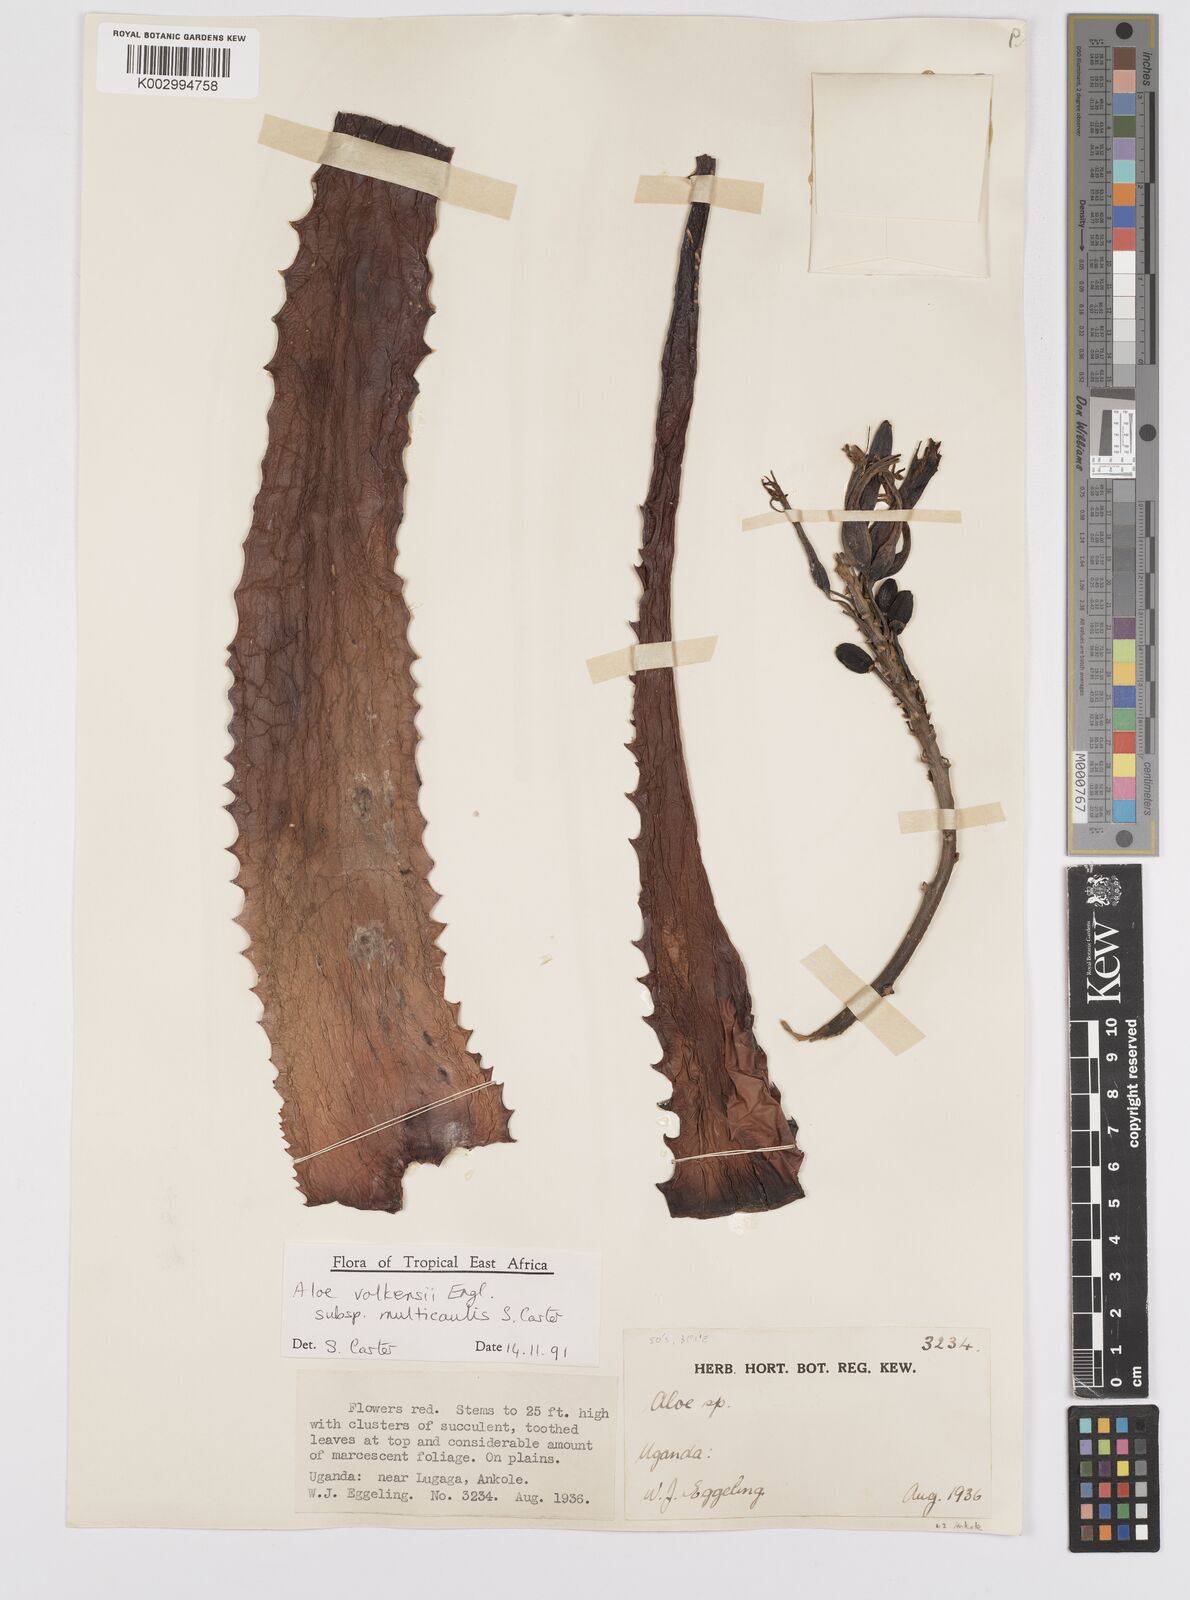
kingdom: Plantae
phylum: Tracheophyta
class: Liliopsida
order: Asparagales
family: Asphodelaceae
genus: Aloe
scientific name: Aloe volkensii
